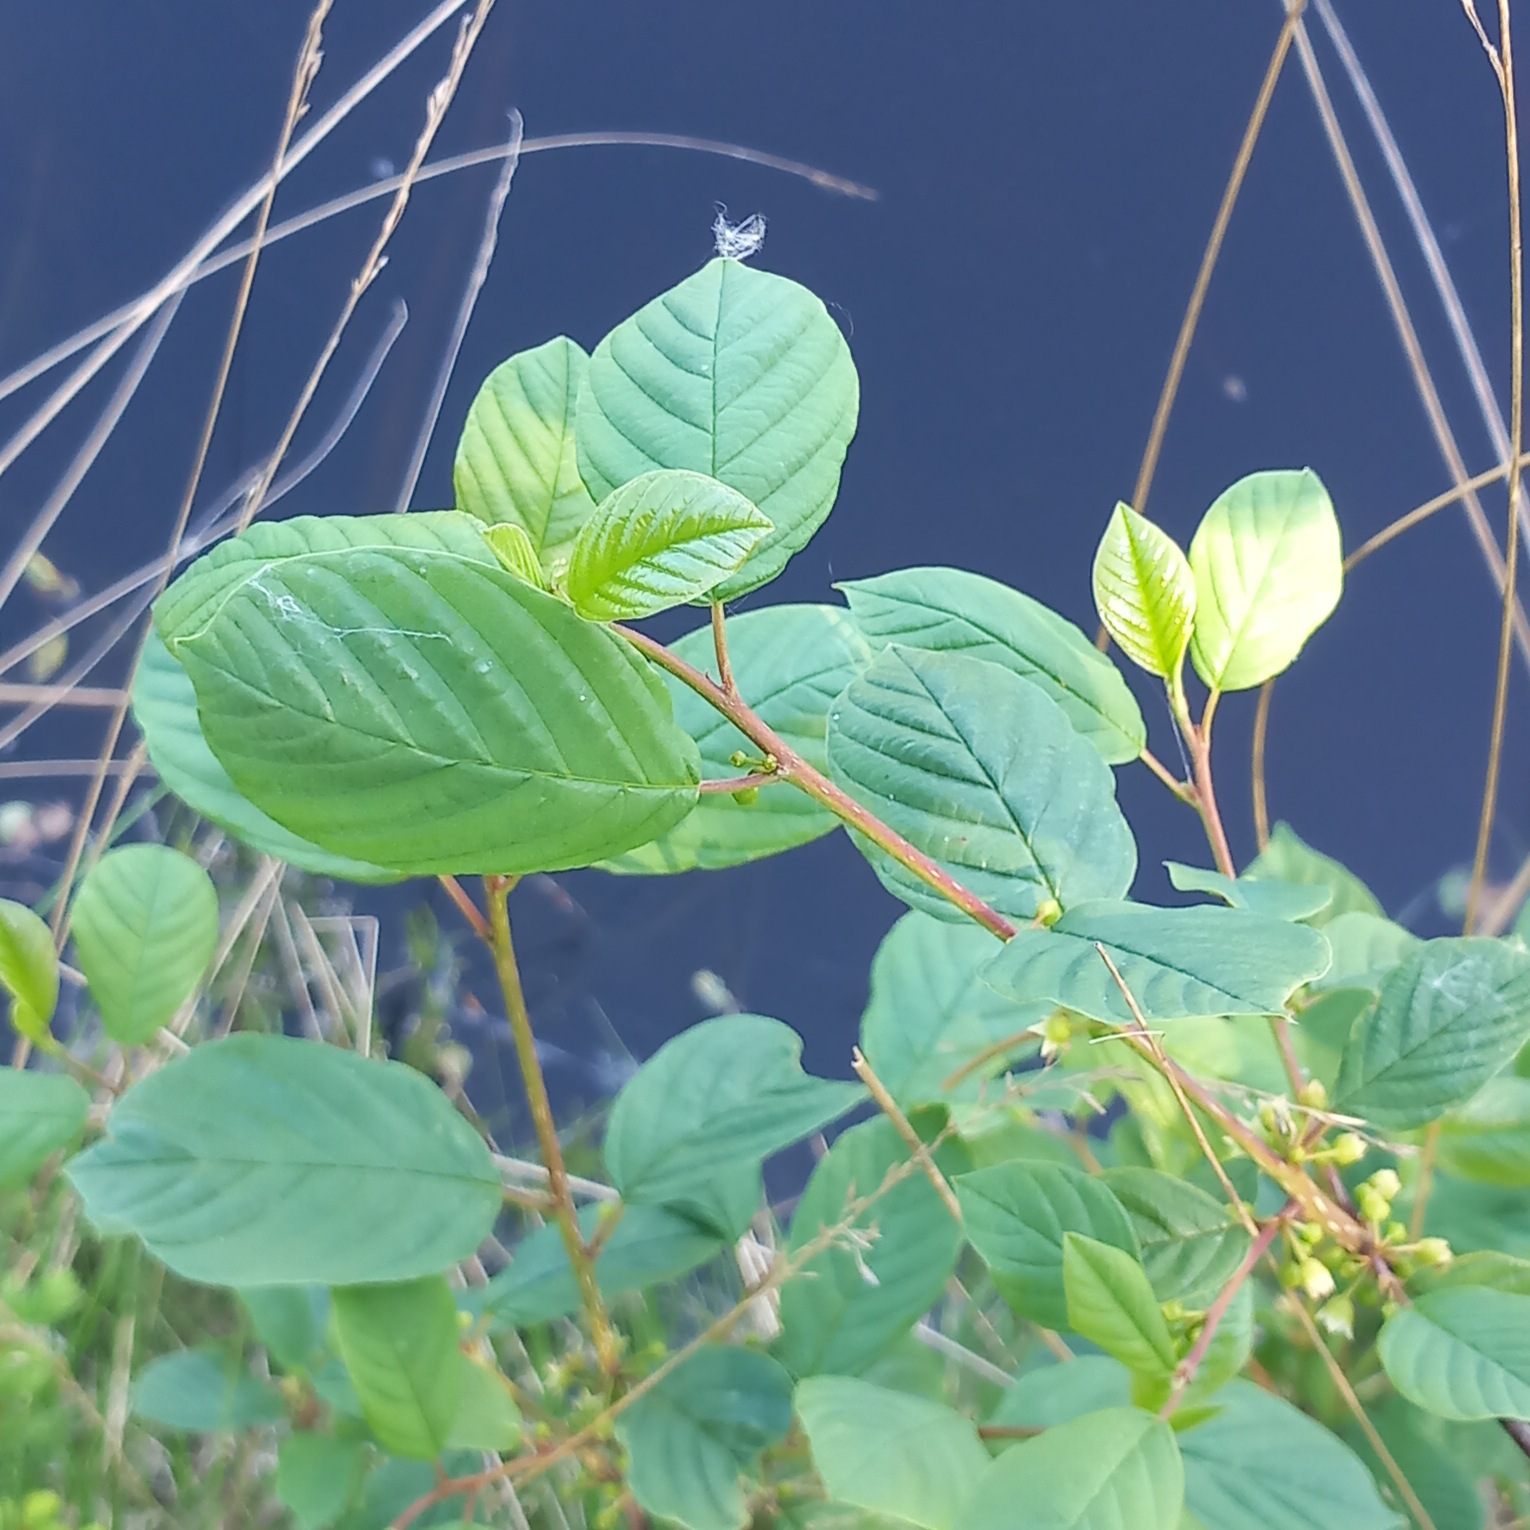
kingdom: Plantae
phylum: Tracheophyta
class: Magnoliopsida
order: Rosales
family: Rhamnaceae
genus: Frangula
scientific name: Frangula alnus
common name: Tørst
